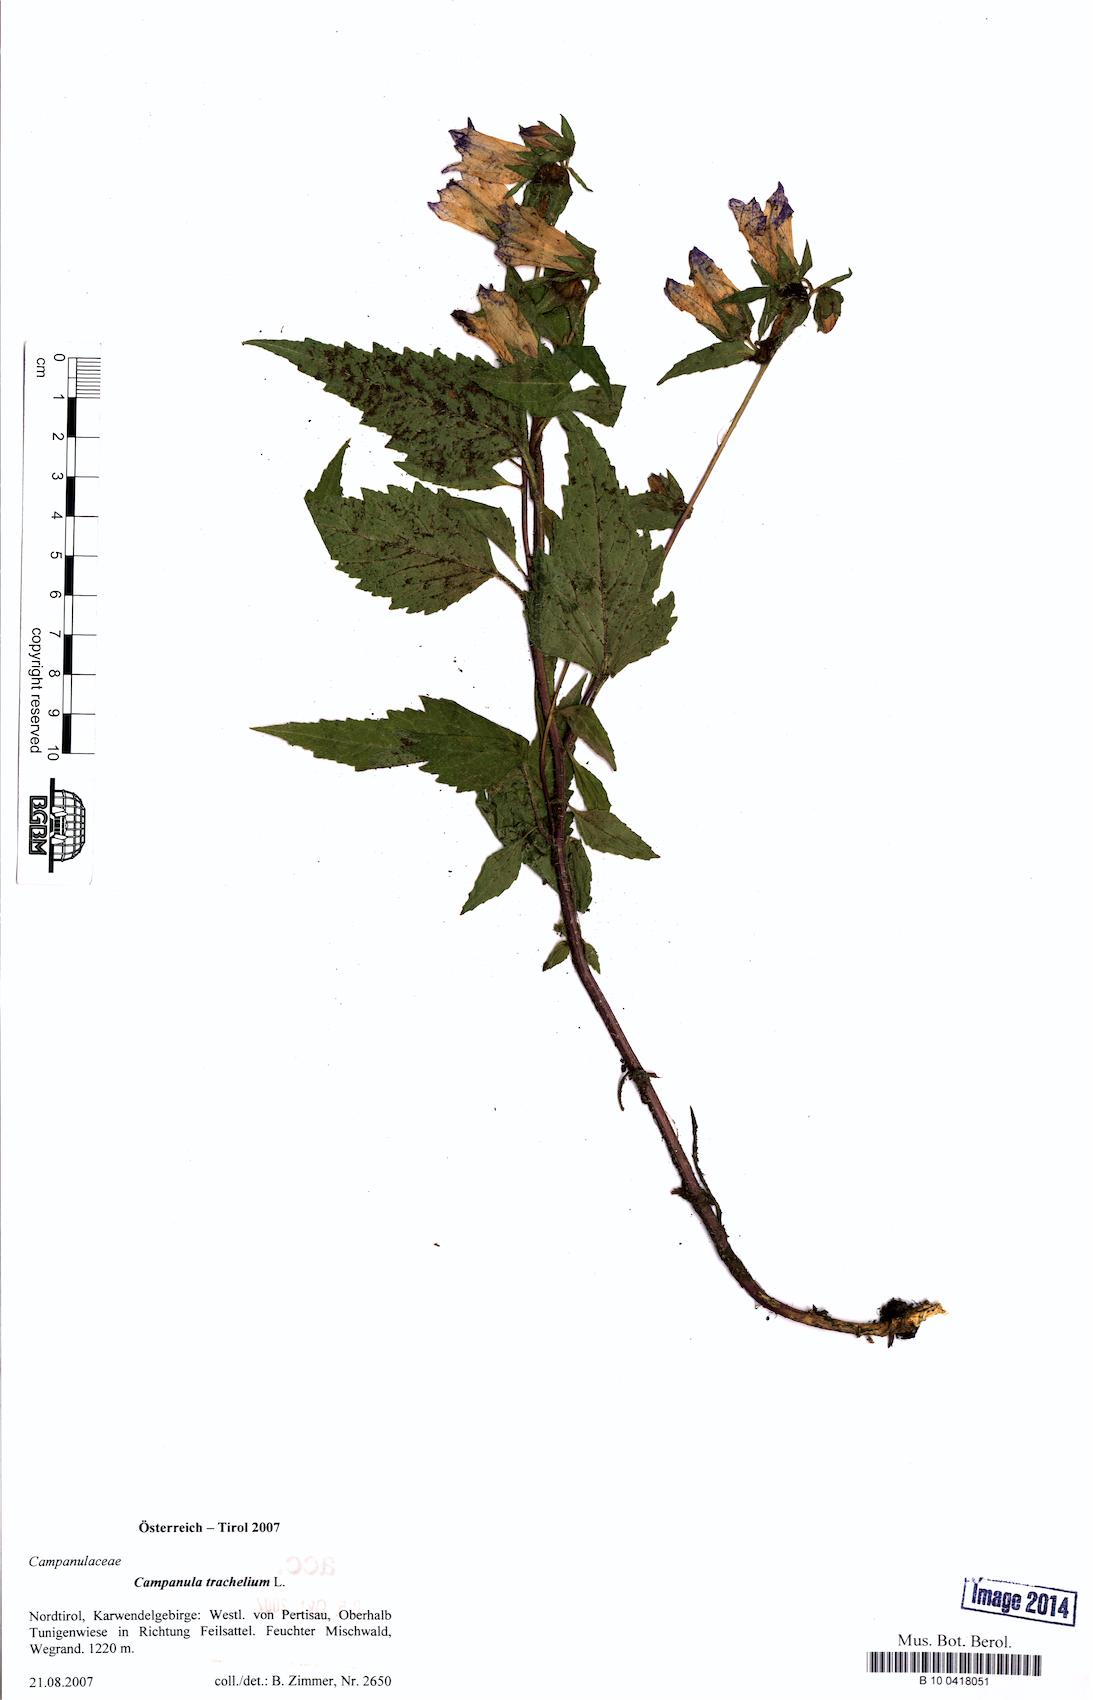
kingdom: Plantae
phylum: Tracheophyta
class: Magnoliopsida
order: Asterales
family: Campanulaceae
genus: Campanula
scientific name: Campanula trachelium
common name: Nettle-leaved bellflower
